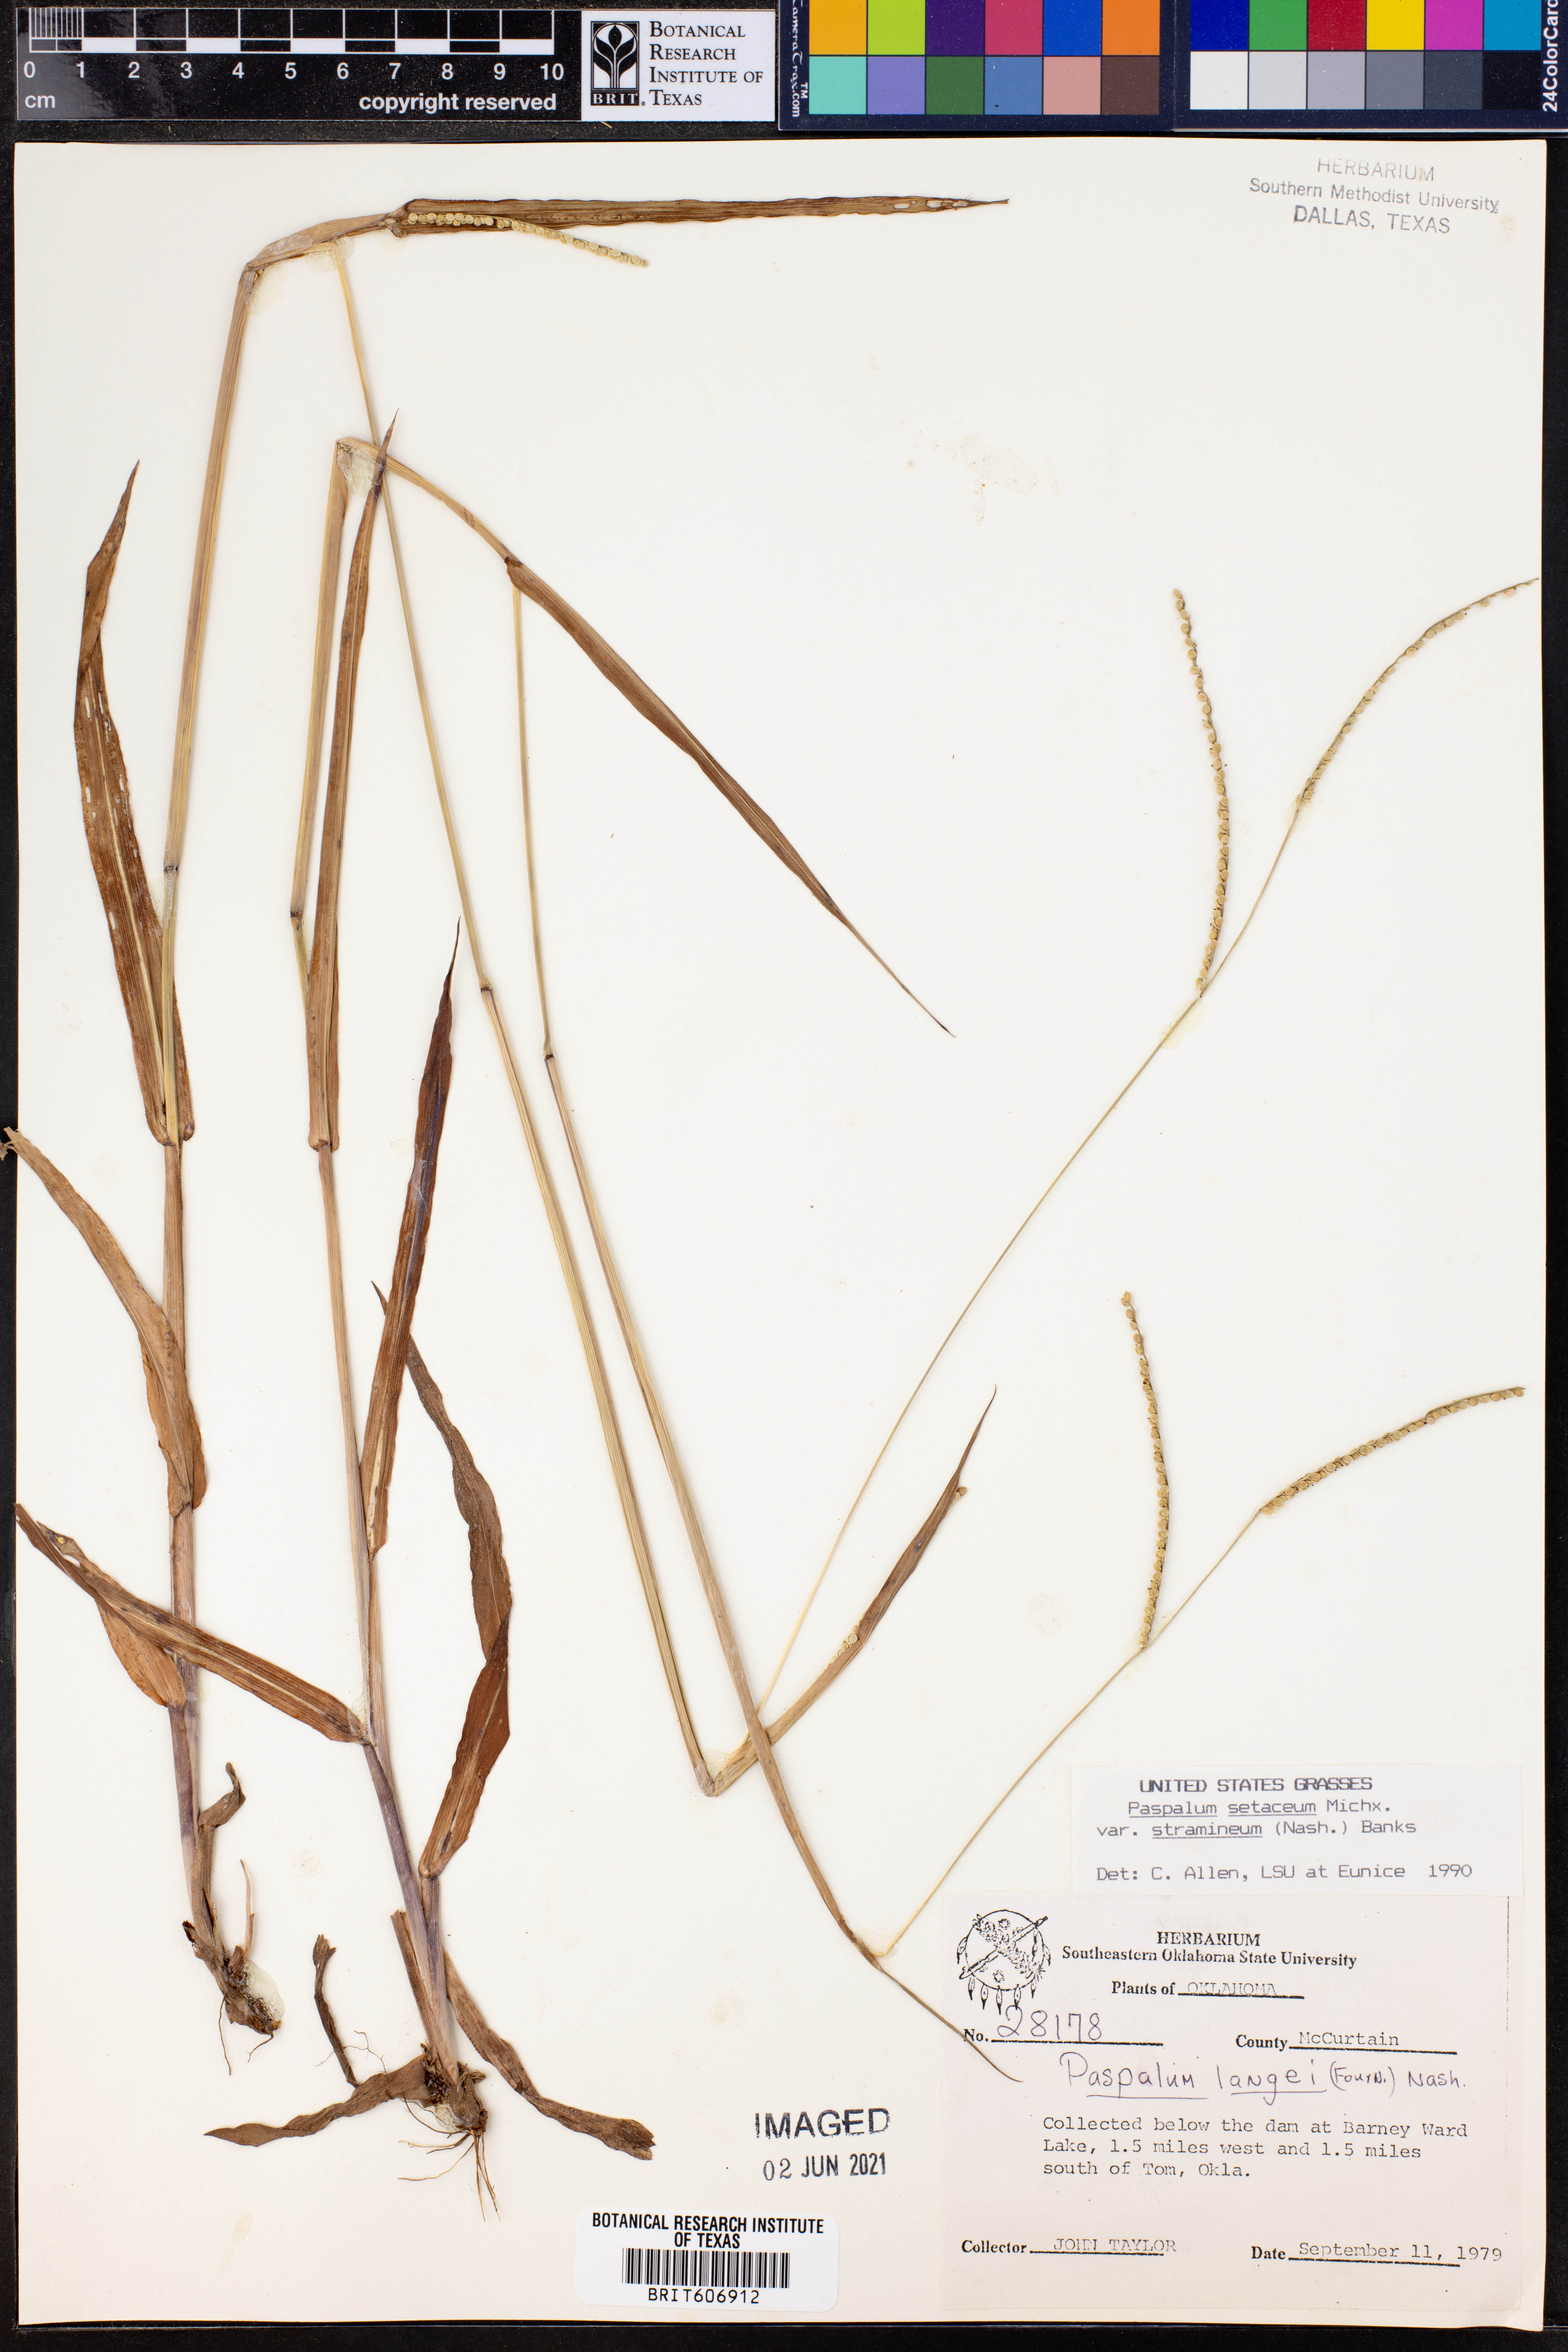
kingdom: Plantae
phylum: Tracheophyta
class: Liliopsida
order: Poales
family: Poaceae
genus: Paspalum
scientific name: Paspalum setaceum
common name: Slender paspalum
